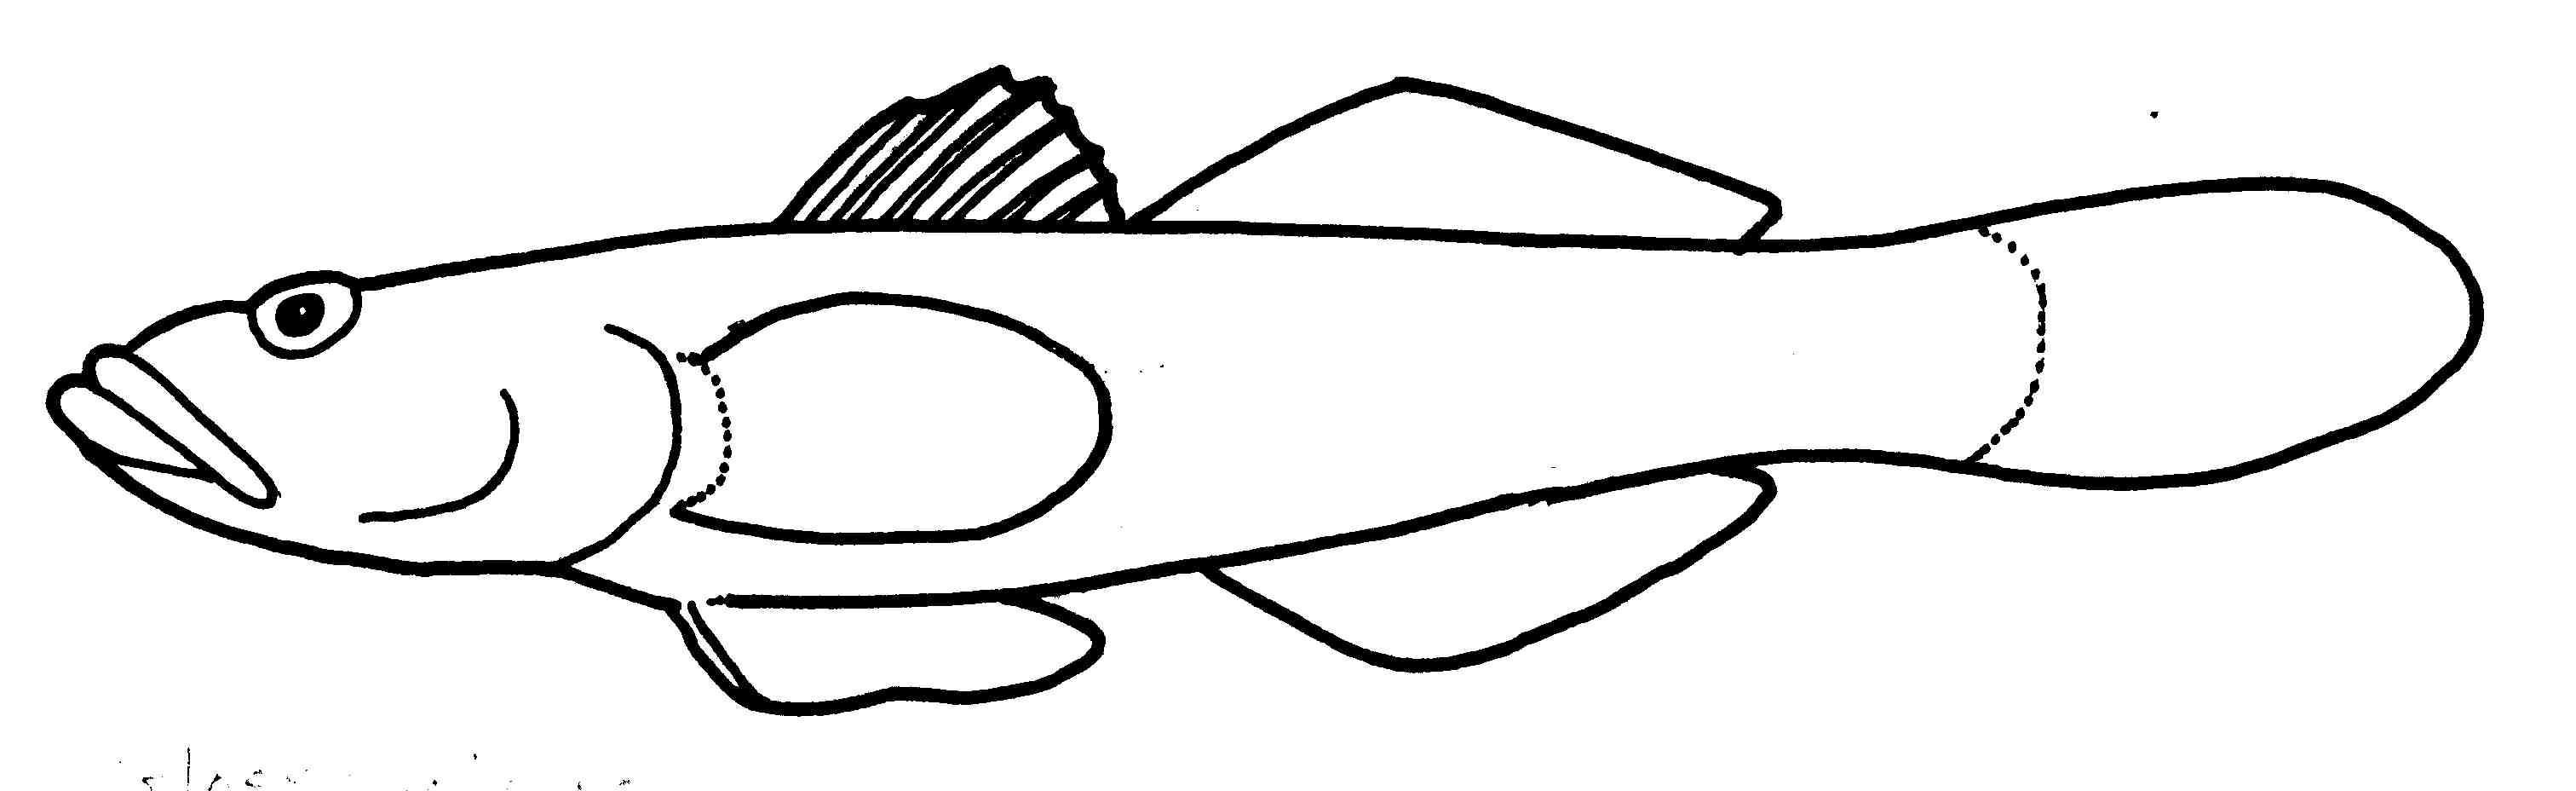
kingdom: Animalia
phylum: Chordata
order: Perciformes
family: Gobiidae
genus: Glossogobius
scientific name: Glossogobius callidus
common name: River goby
